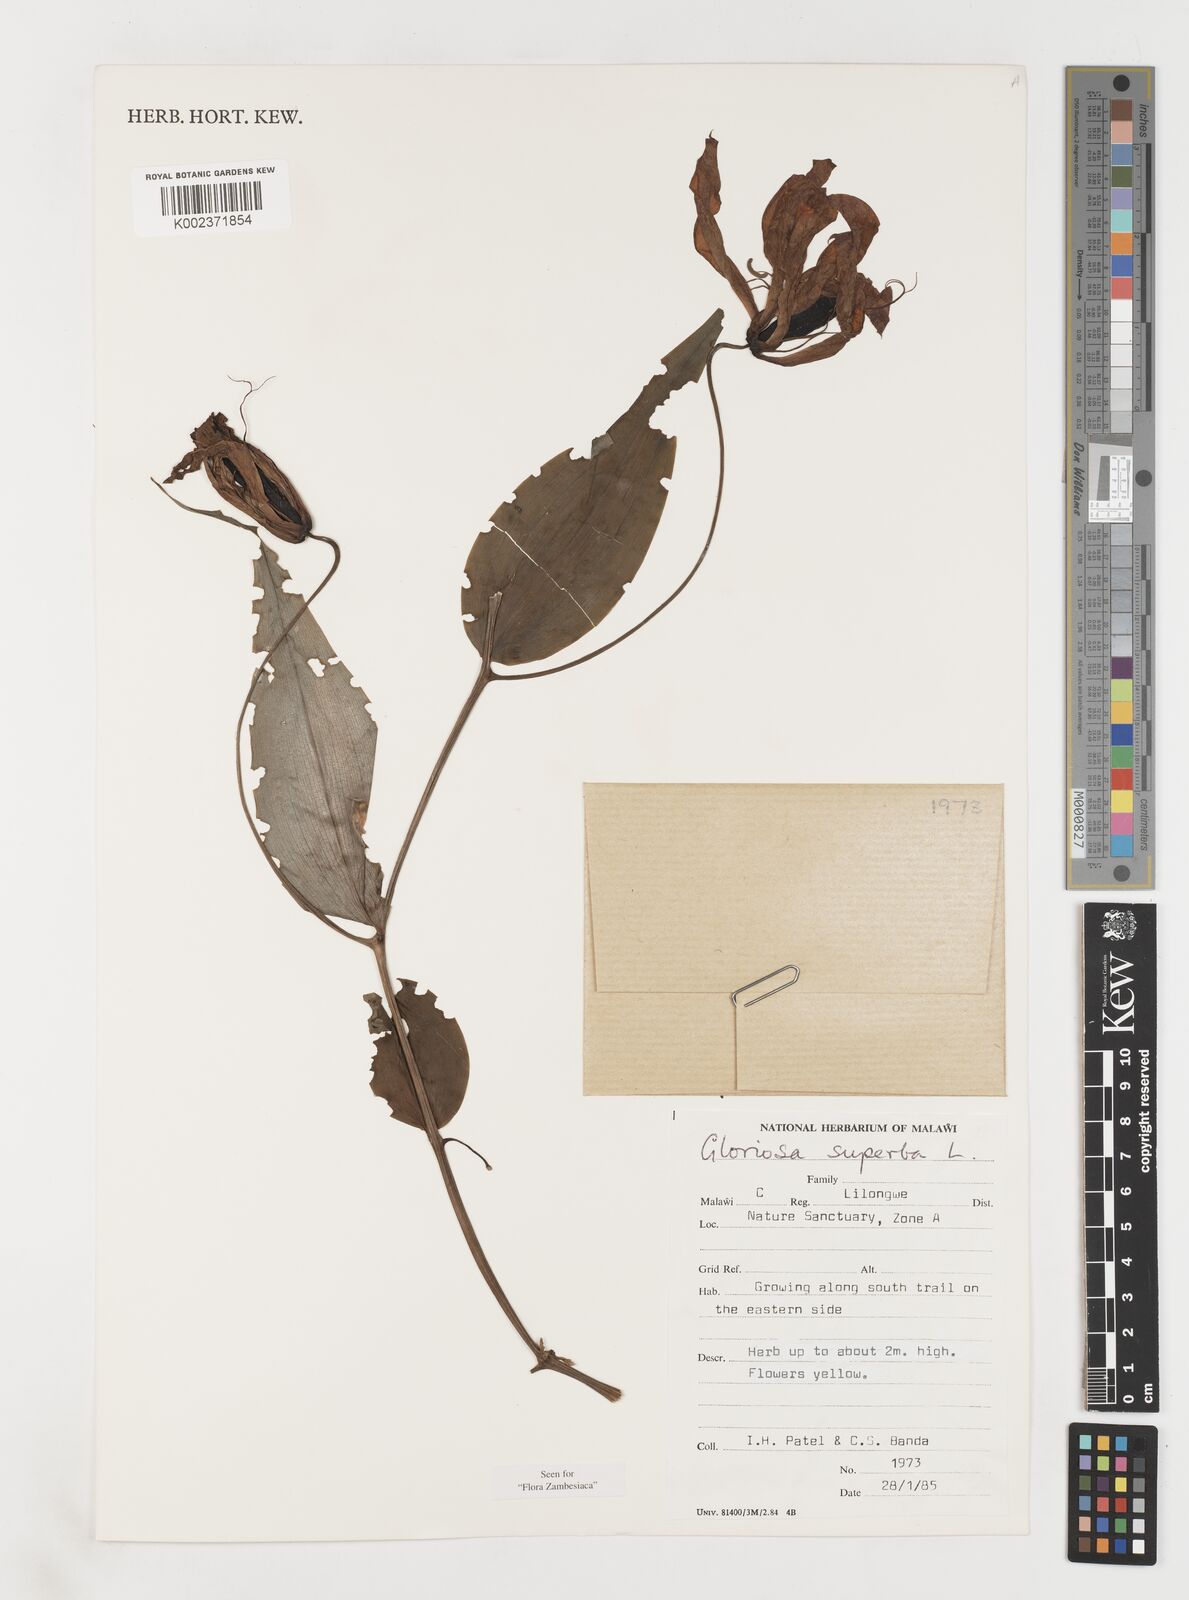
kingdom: Plantae
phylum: Tracheophyta
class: Liliopsida
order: Liliales
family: Colchicaceae
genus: Gloriosa
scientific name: Gloriosa simplex
